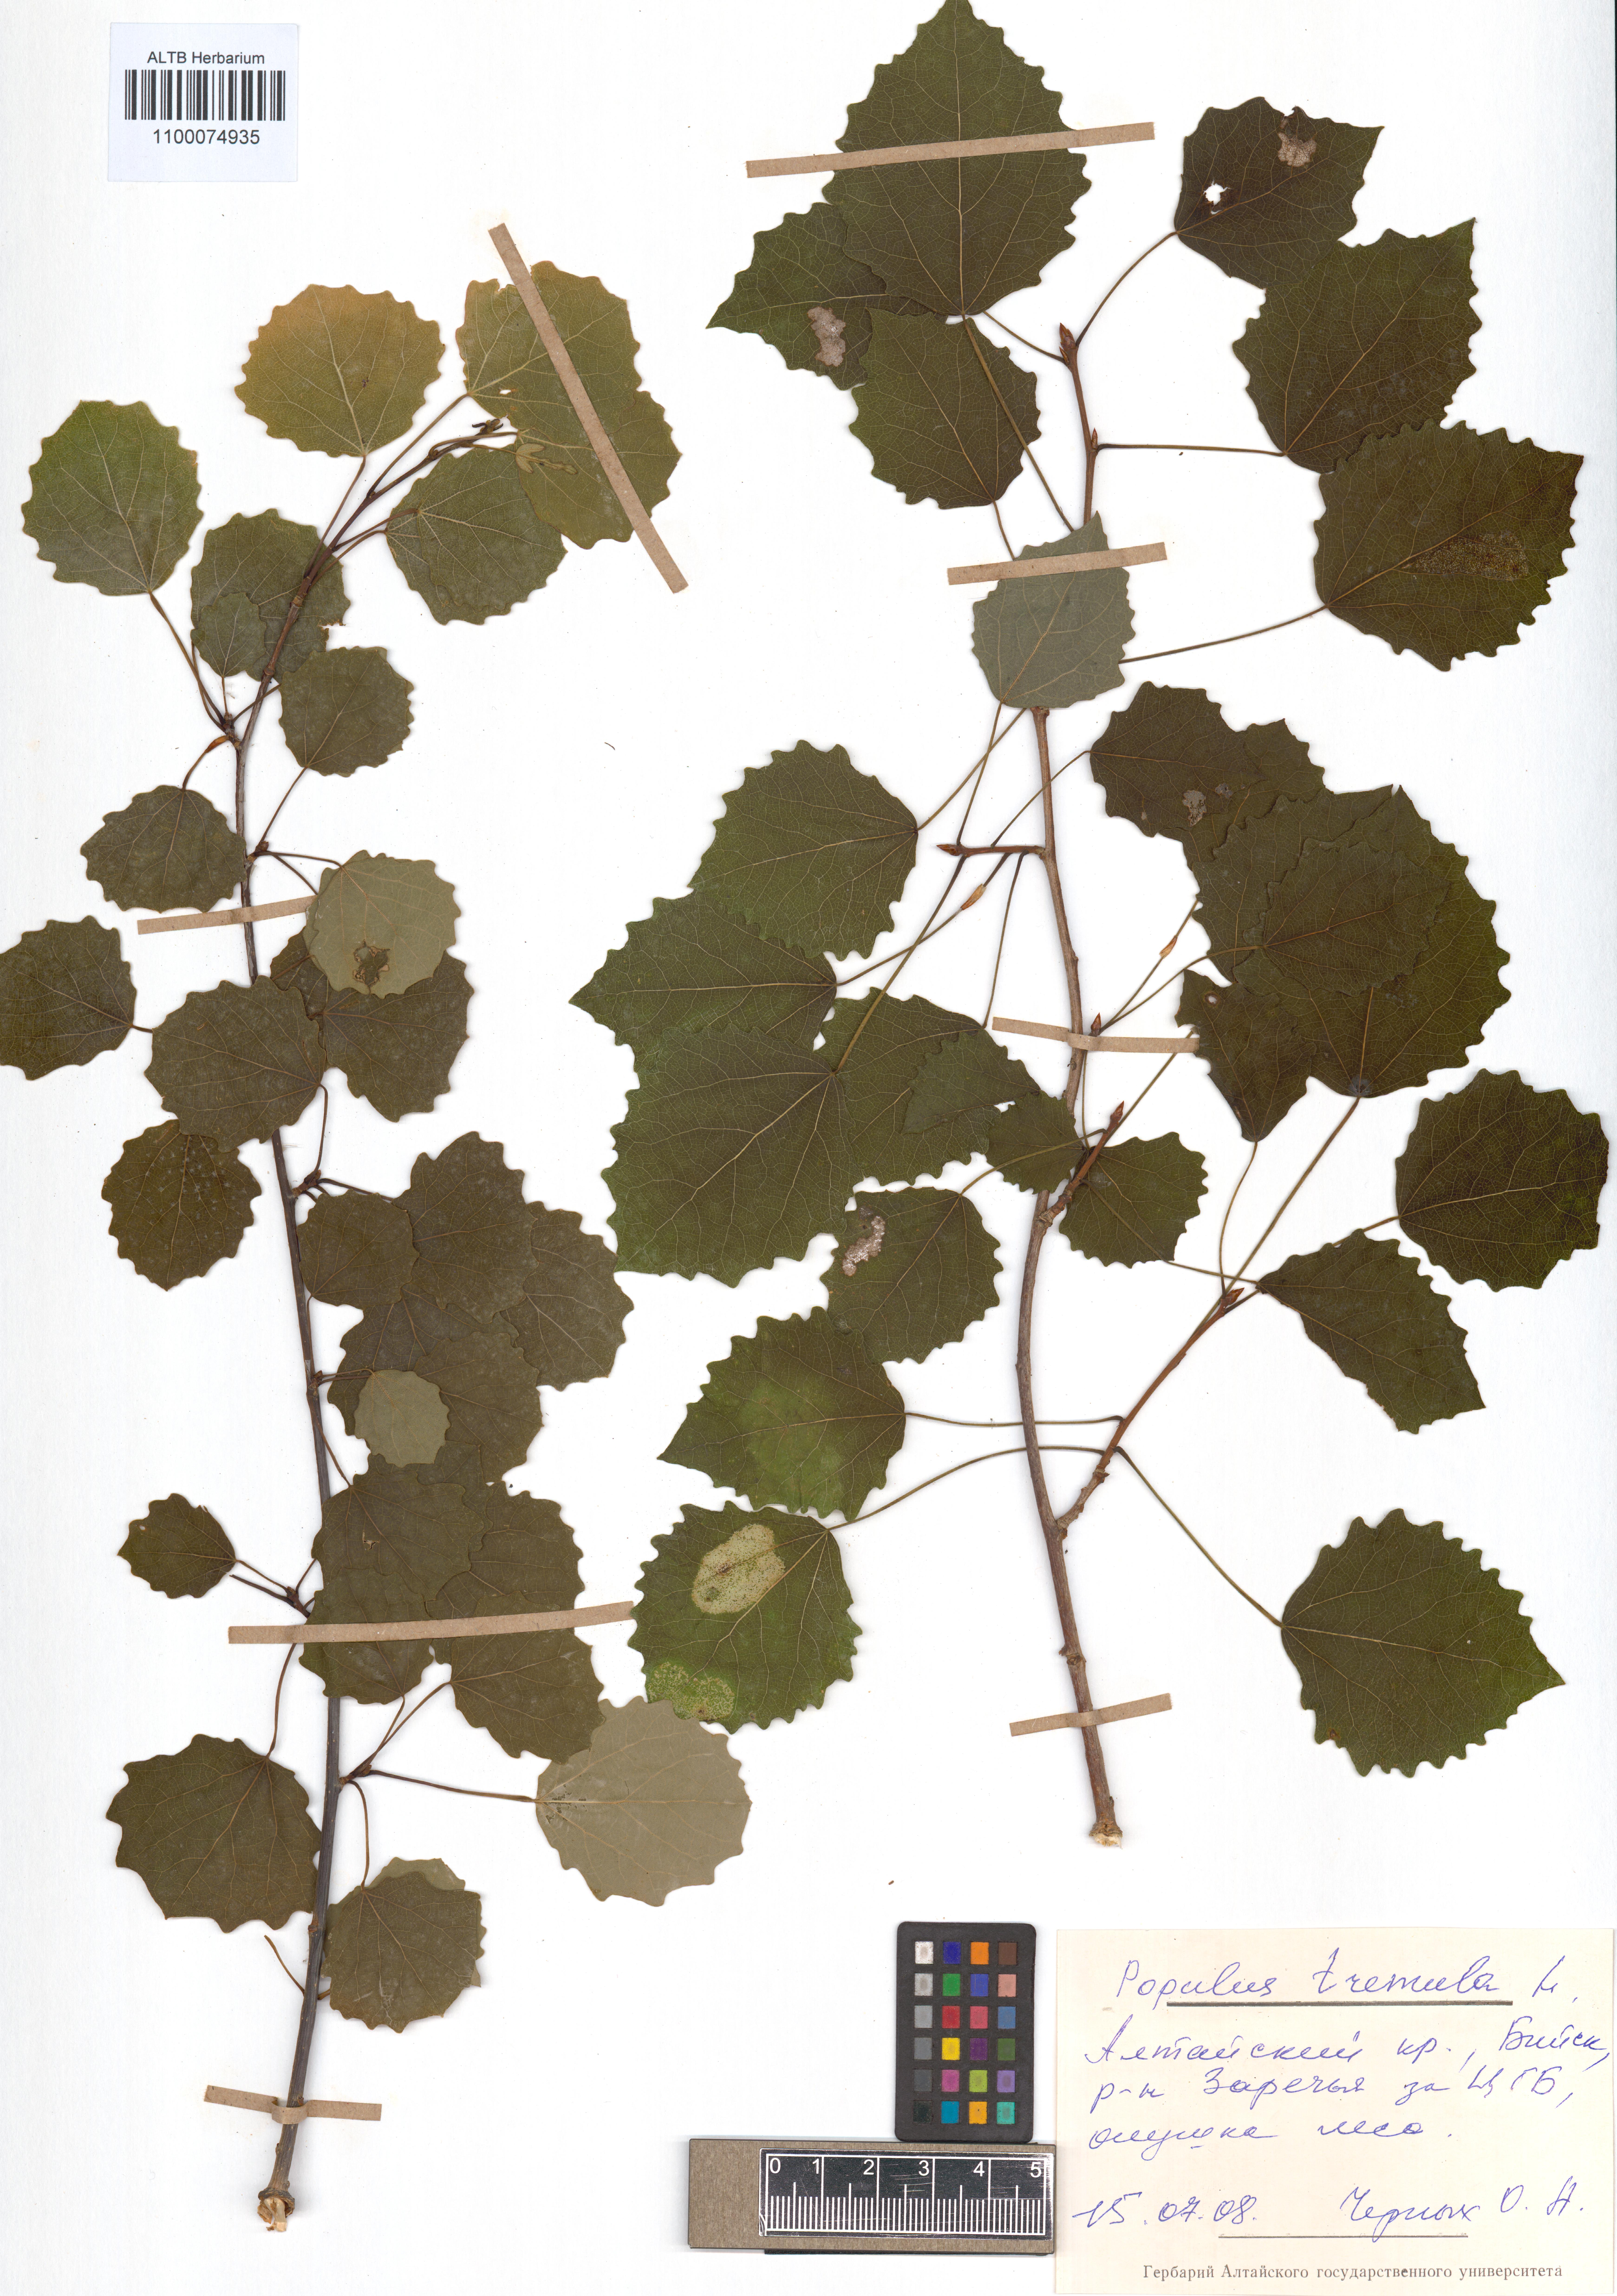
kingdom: Plantae
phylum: Tracheophyta
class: Magnoliopsida
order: Malpighiales
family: Salicaceae
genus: Populus
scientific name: Populus tremula
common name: European aspen
